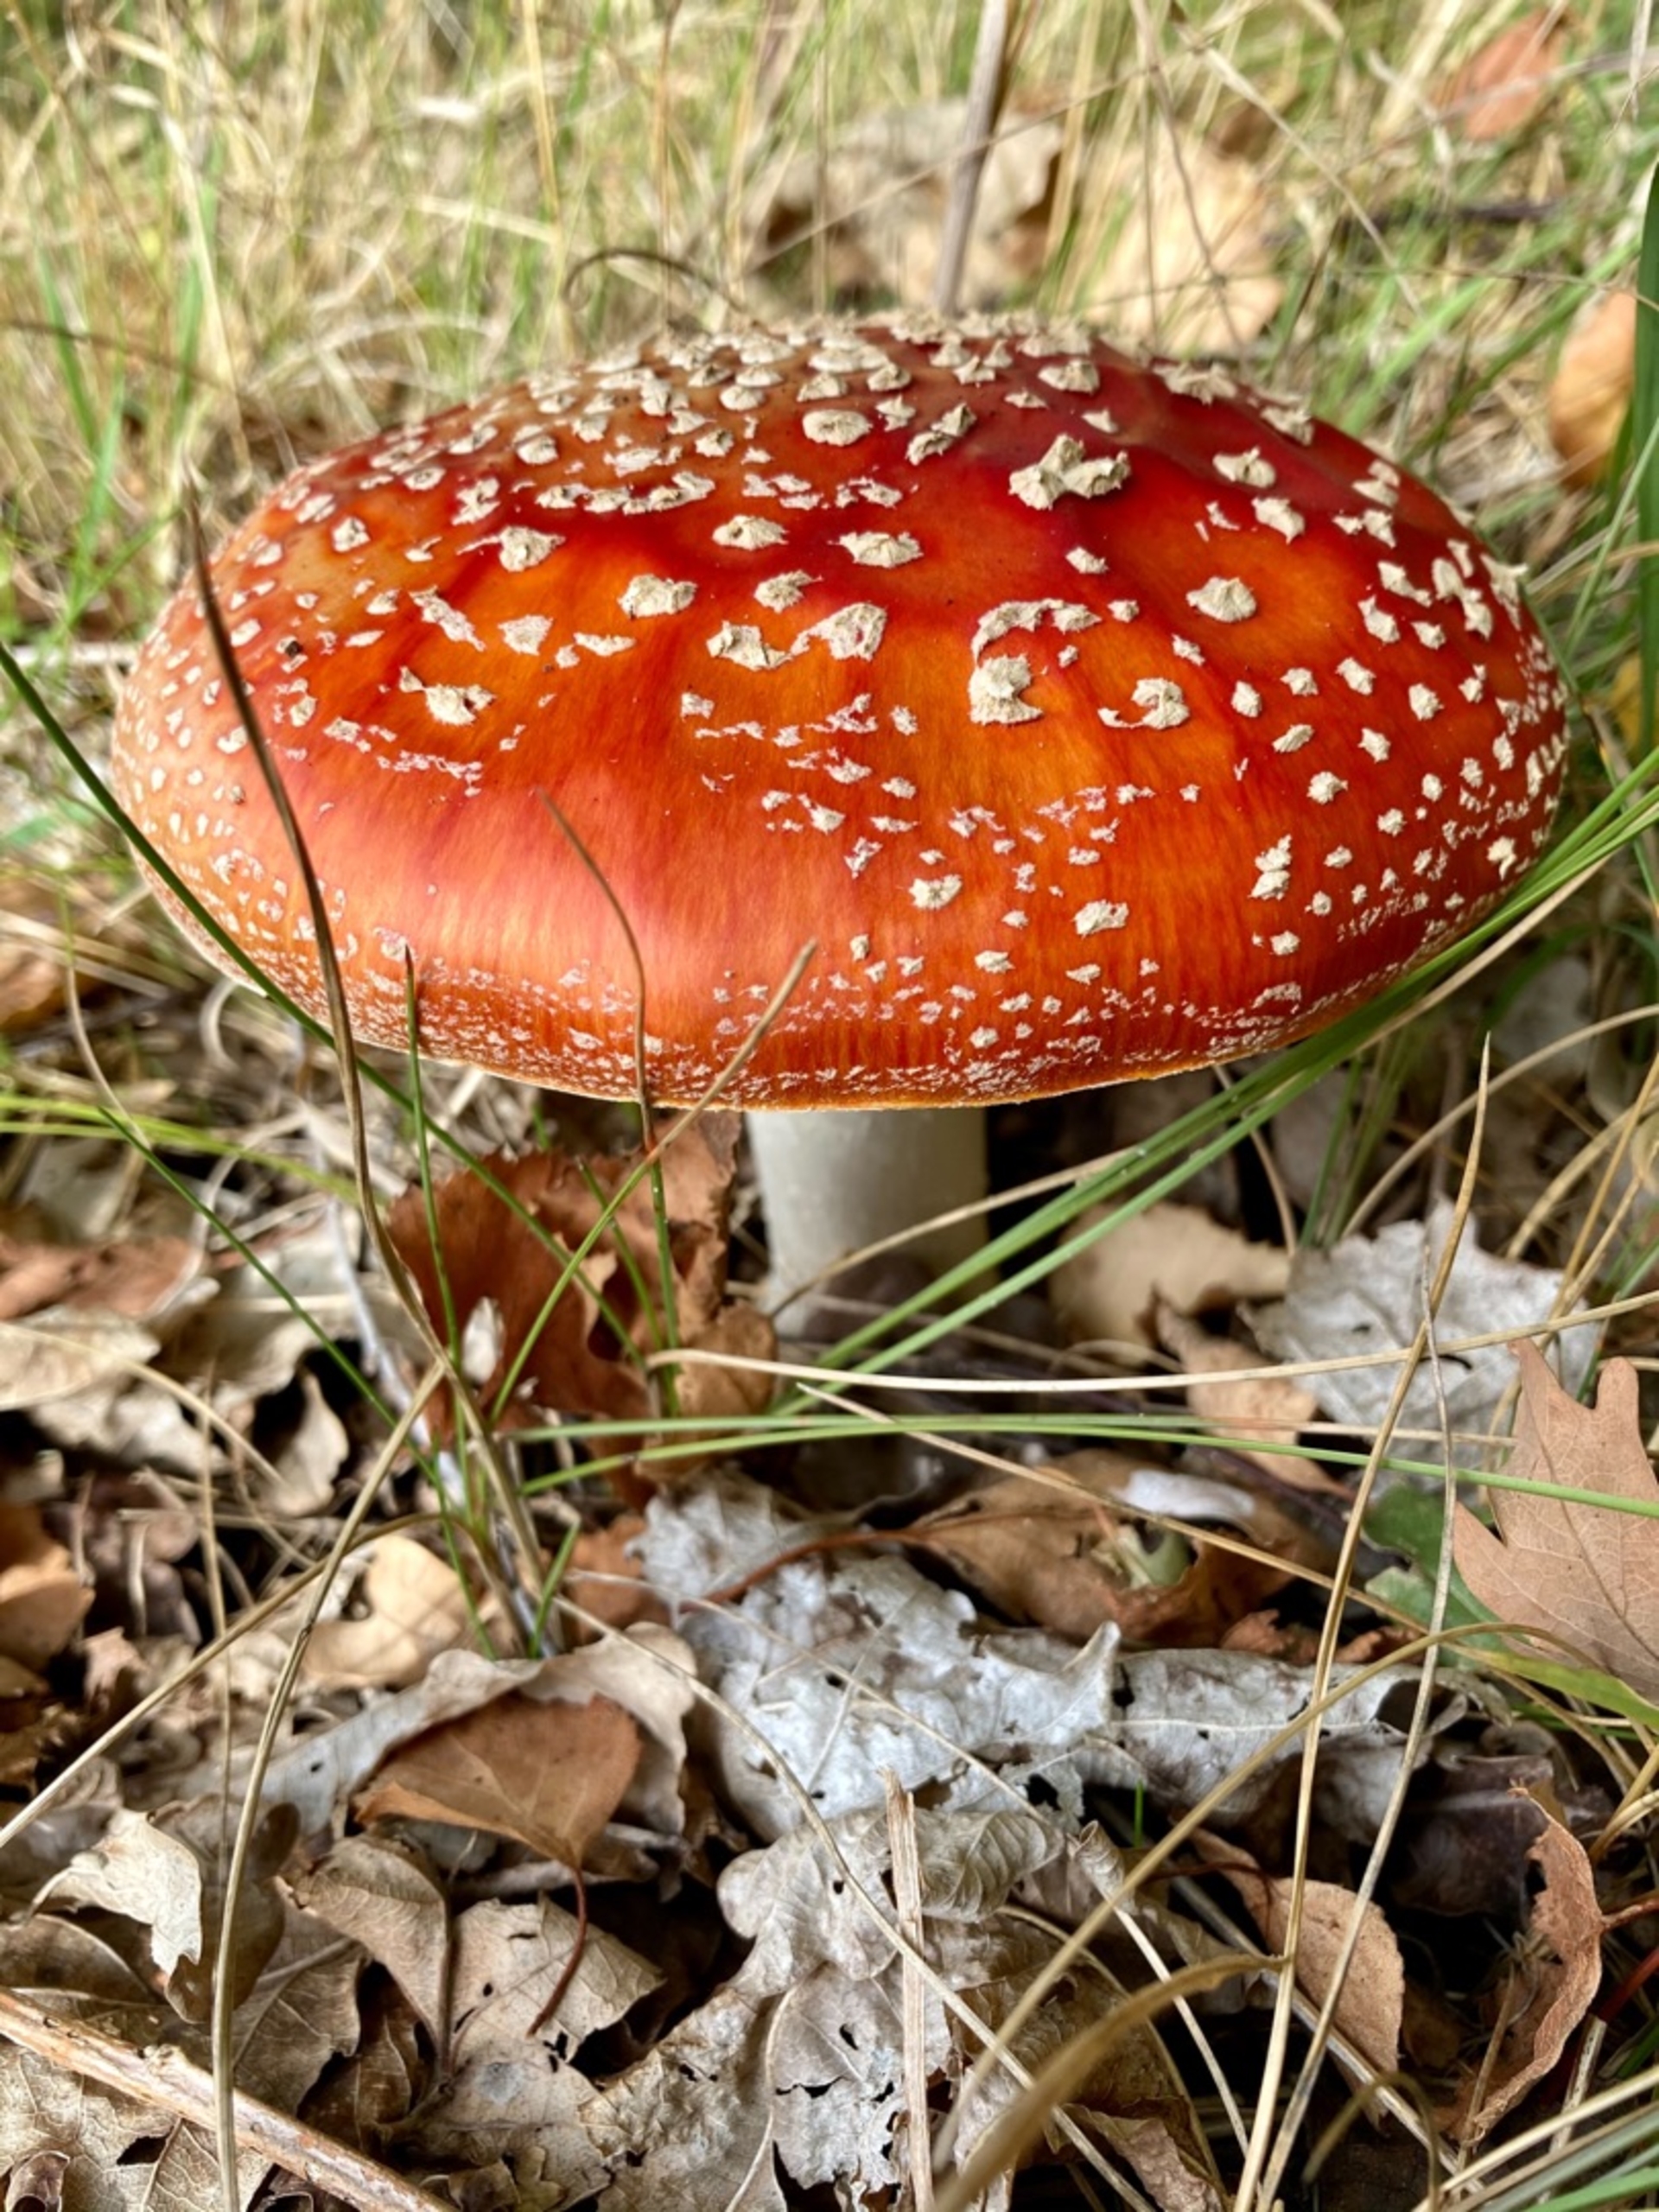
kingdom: Fungi
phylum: Basidiomycota
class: Agaricomycetes
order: Agaricales
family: Amanitaceae
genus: Amanita
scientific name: Amanita muscaria
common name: Rød fluesvamp
